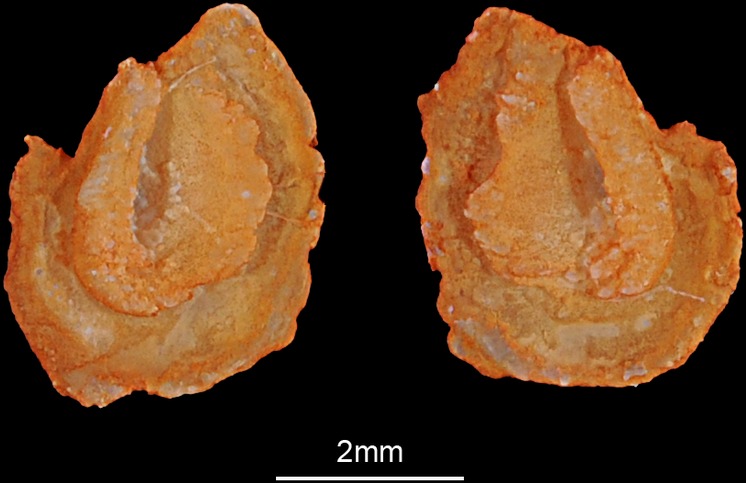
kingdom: Animalia
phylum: Chordata
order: Cypriniformes
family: Cyprinidae
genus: Barbus
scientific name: Barbus barbus
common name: Barbel
